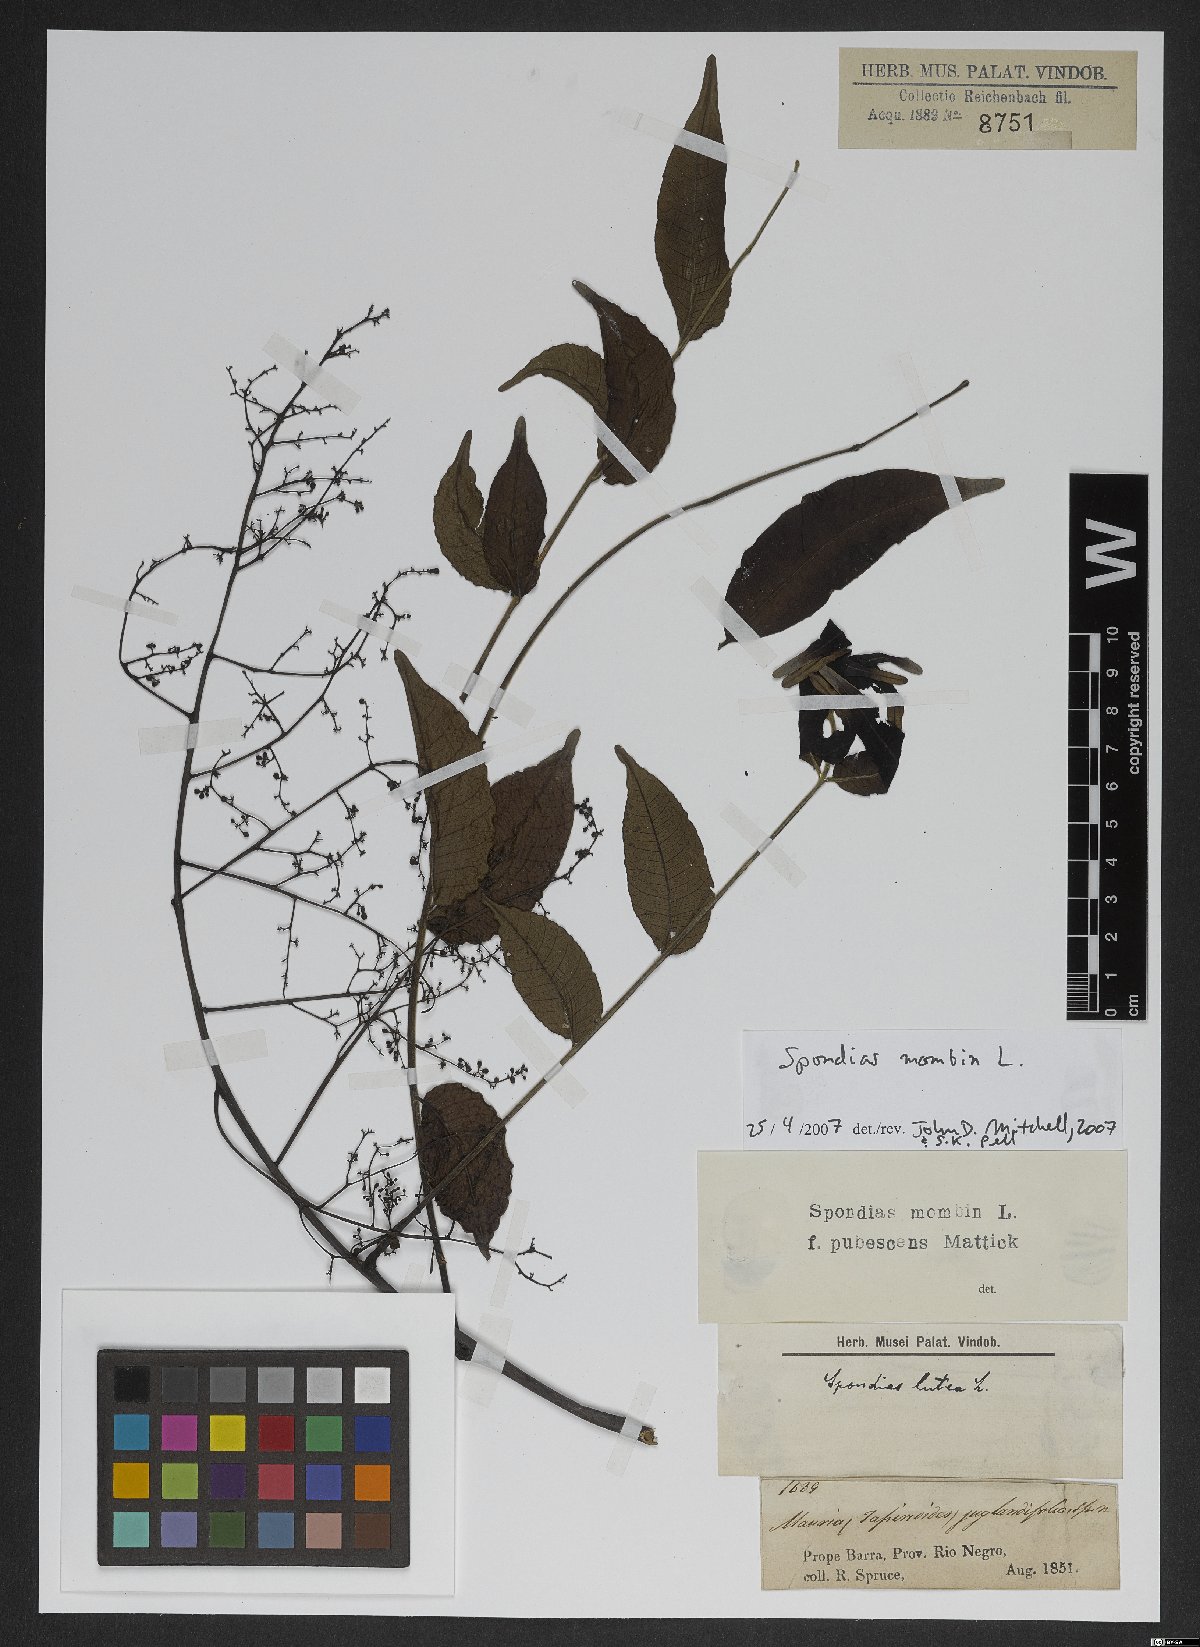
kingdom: Plantae
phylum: Tracheophyta
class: Magnoliopsida
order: Sapindales
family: Anacardiaceae
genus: Spondias
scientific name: Spondias mombin
